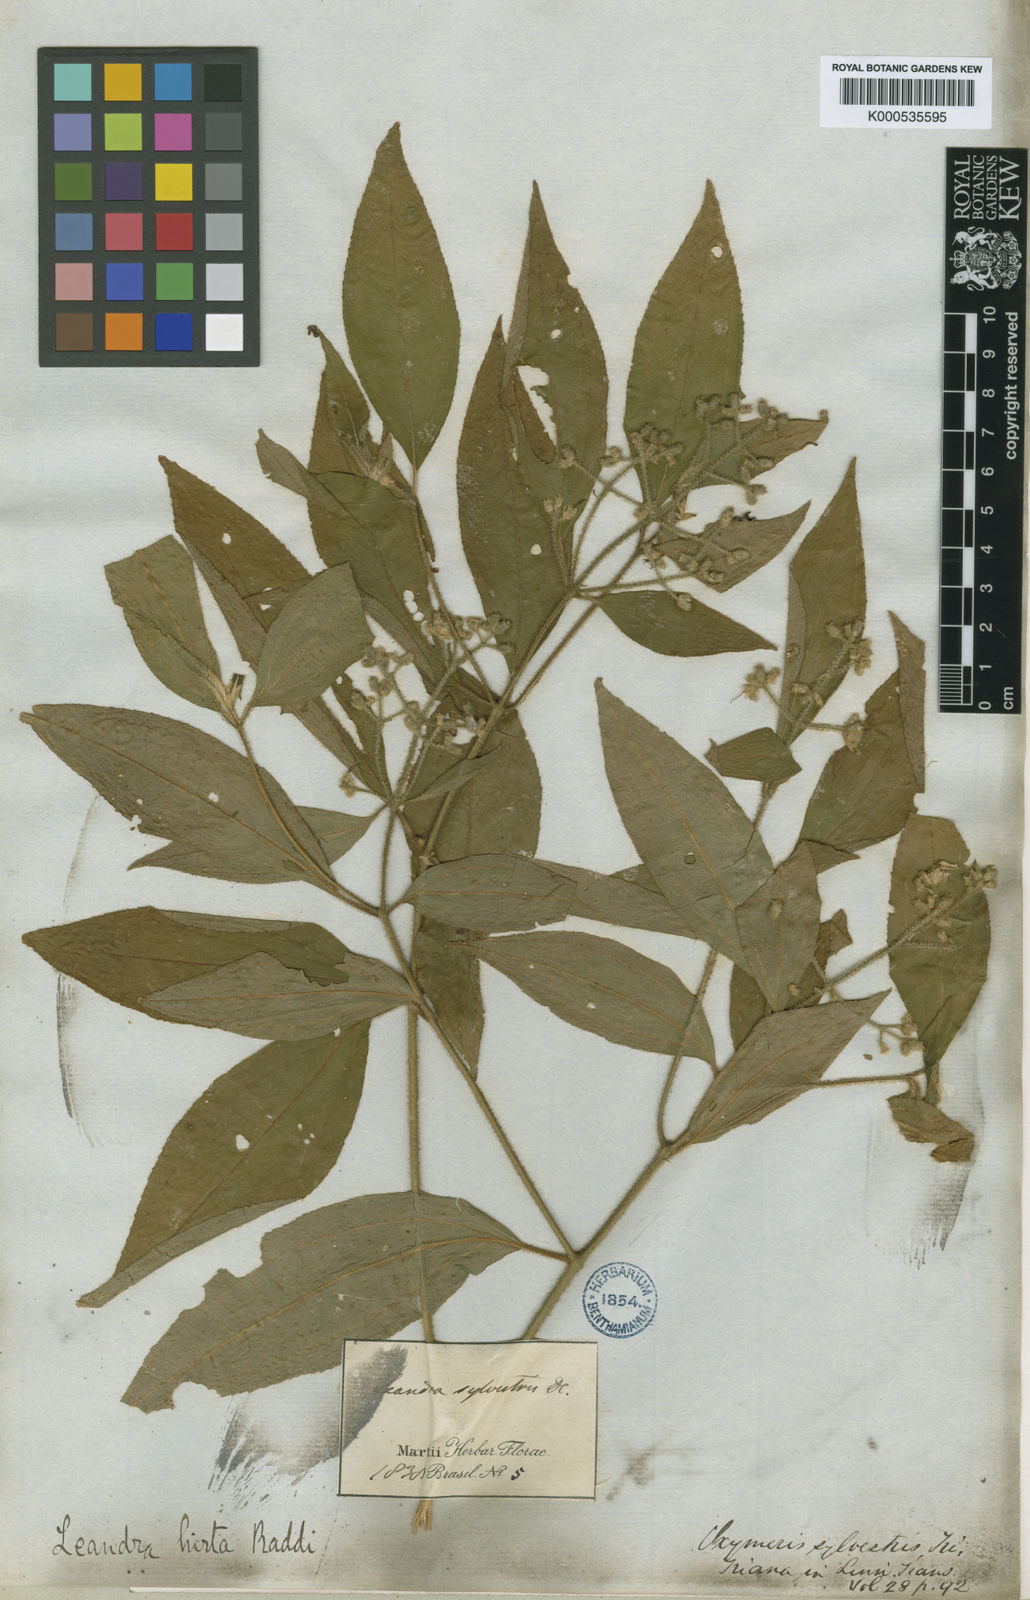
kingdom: Plantae
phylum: Tracheophyta
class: Magnoliopsida
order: Myrtales
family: Melastomataceae
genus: Miconia
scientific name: Miconia dubia
